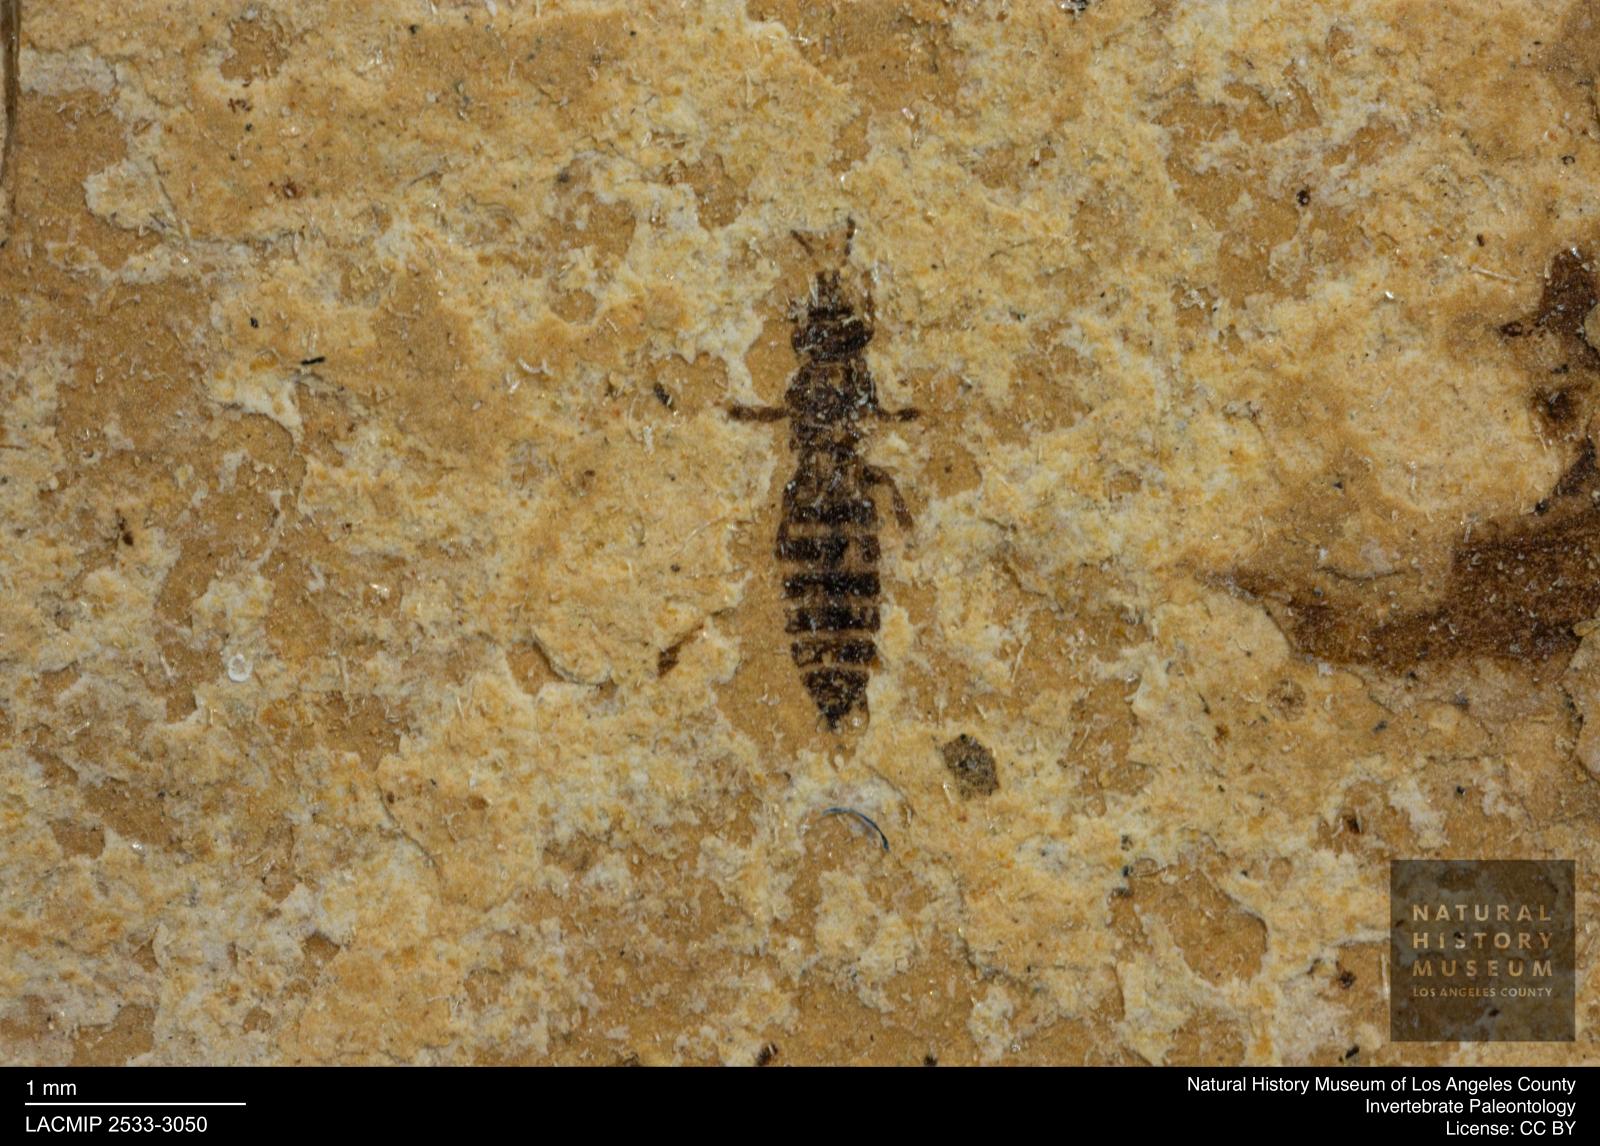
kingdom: Animalia
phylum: Arthropoda
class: Insecta
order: Thysanoptera
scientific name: Thysanoptera
